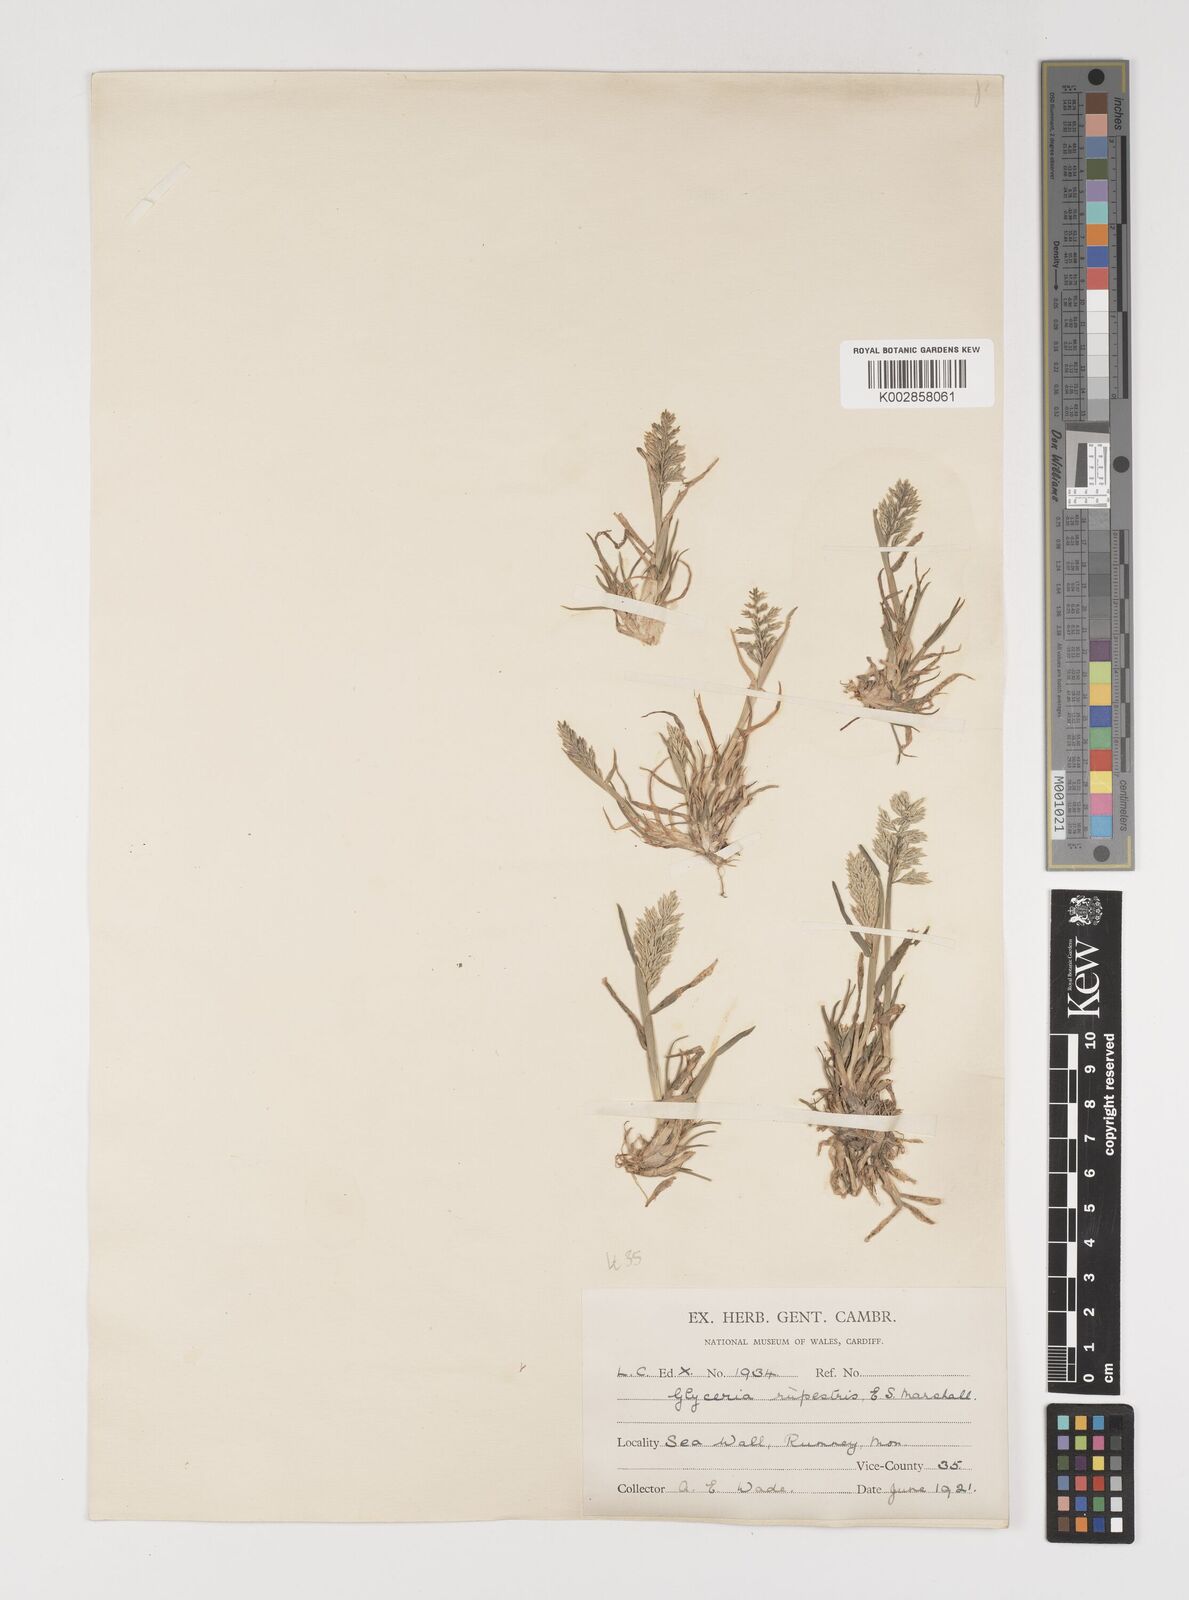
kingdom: Plantae
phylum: Tracheophyta
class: Liliopsida
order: Poales
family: Poaceae
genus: Puccinellia
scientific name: Puccinellia rupestris
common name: Stiff saltmarsh-grass
